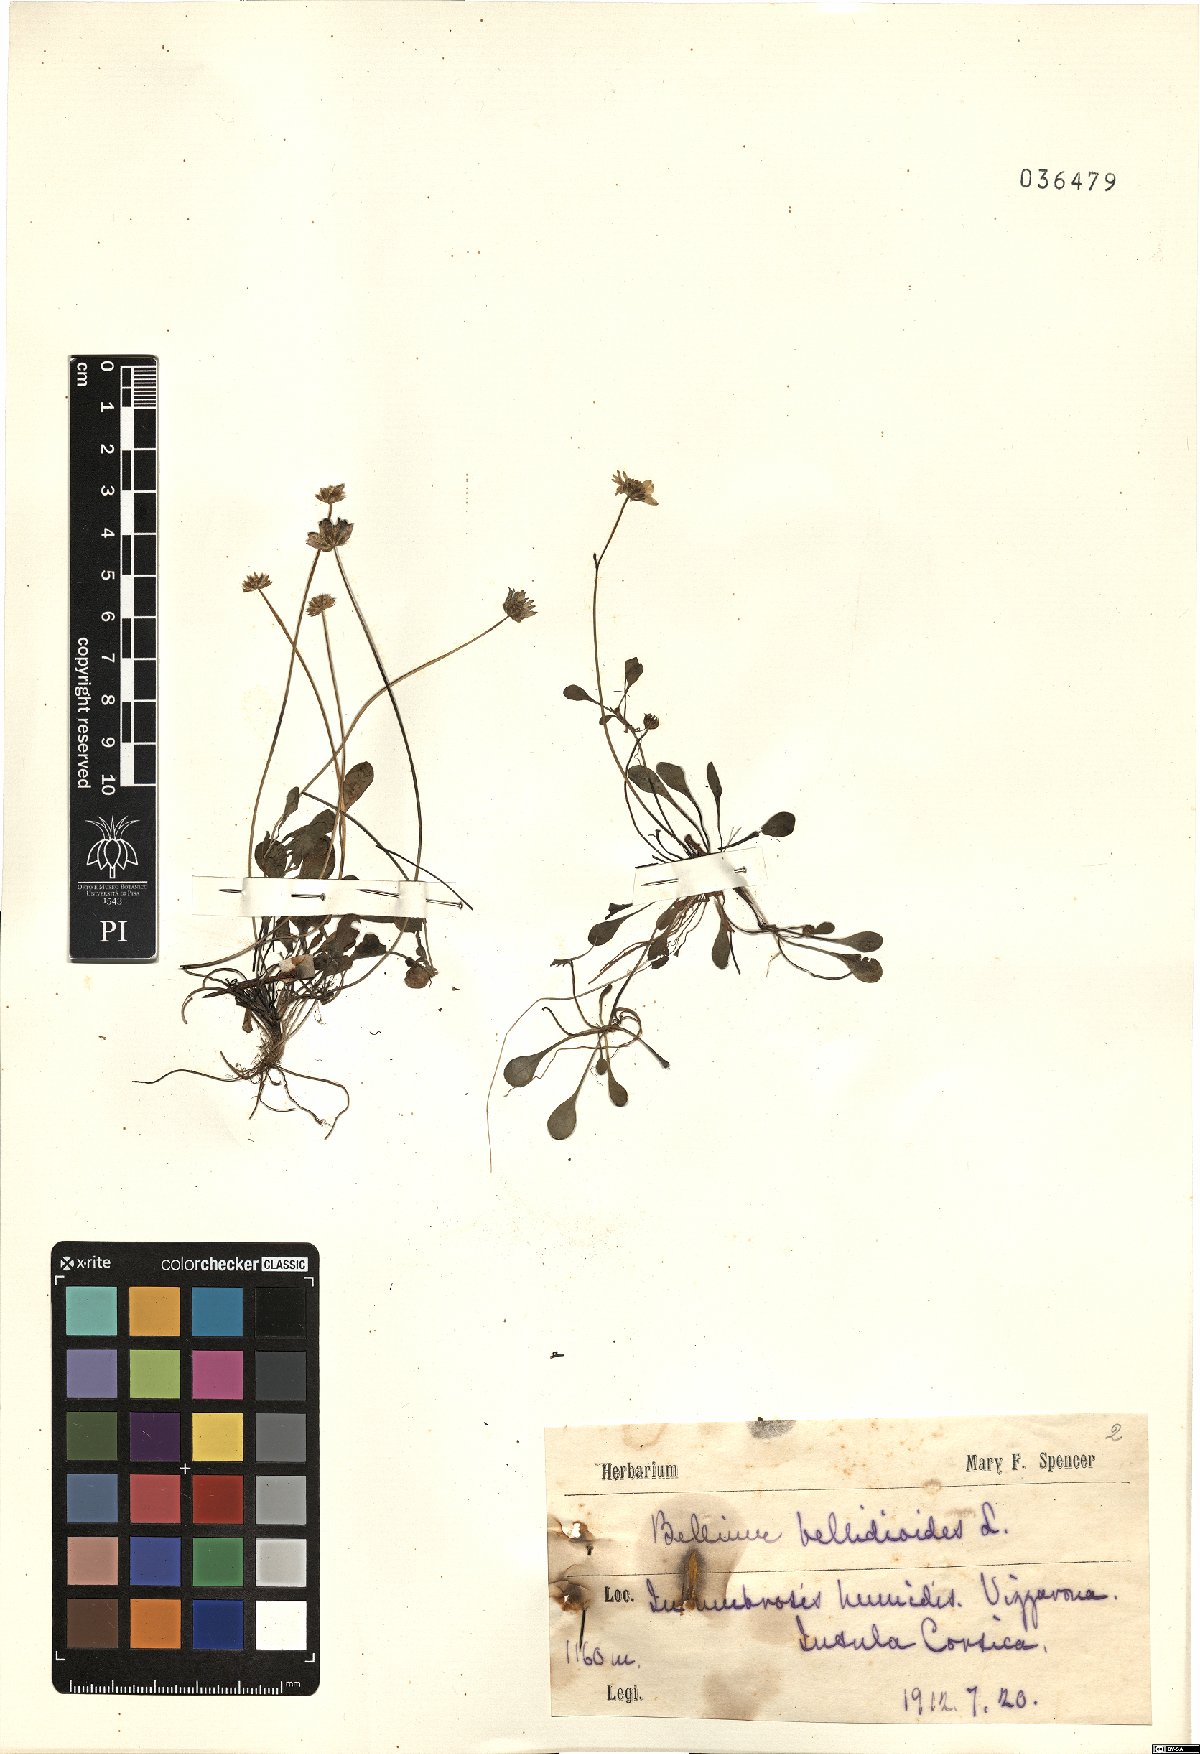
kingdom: Plantae
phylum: Tracheophyta
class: Magnoliopsida
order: Asterales
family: Asteraceae
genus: Bellium
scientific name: Bellium bellidioides
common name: False daisy
